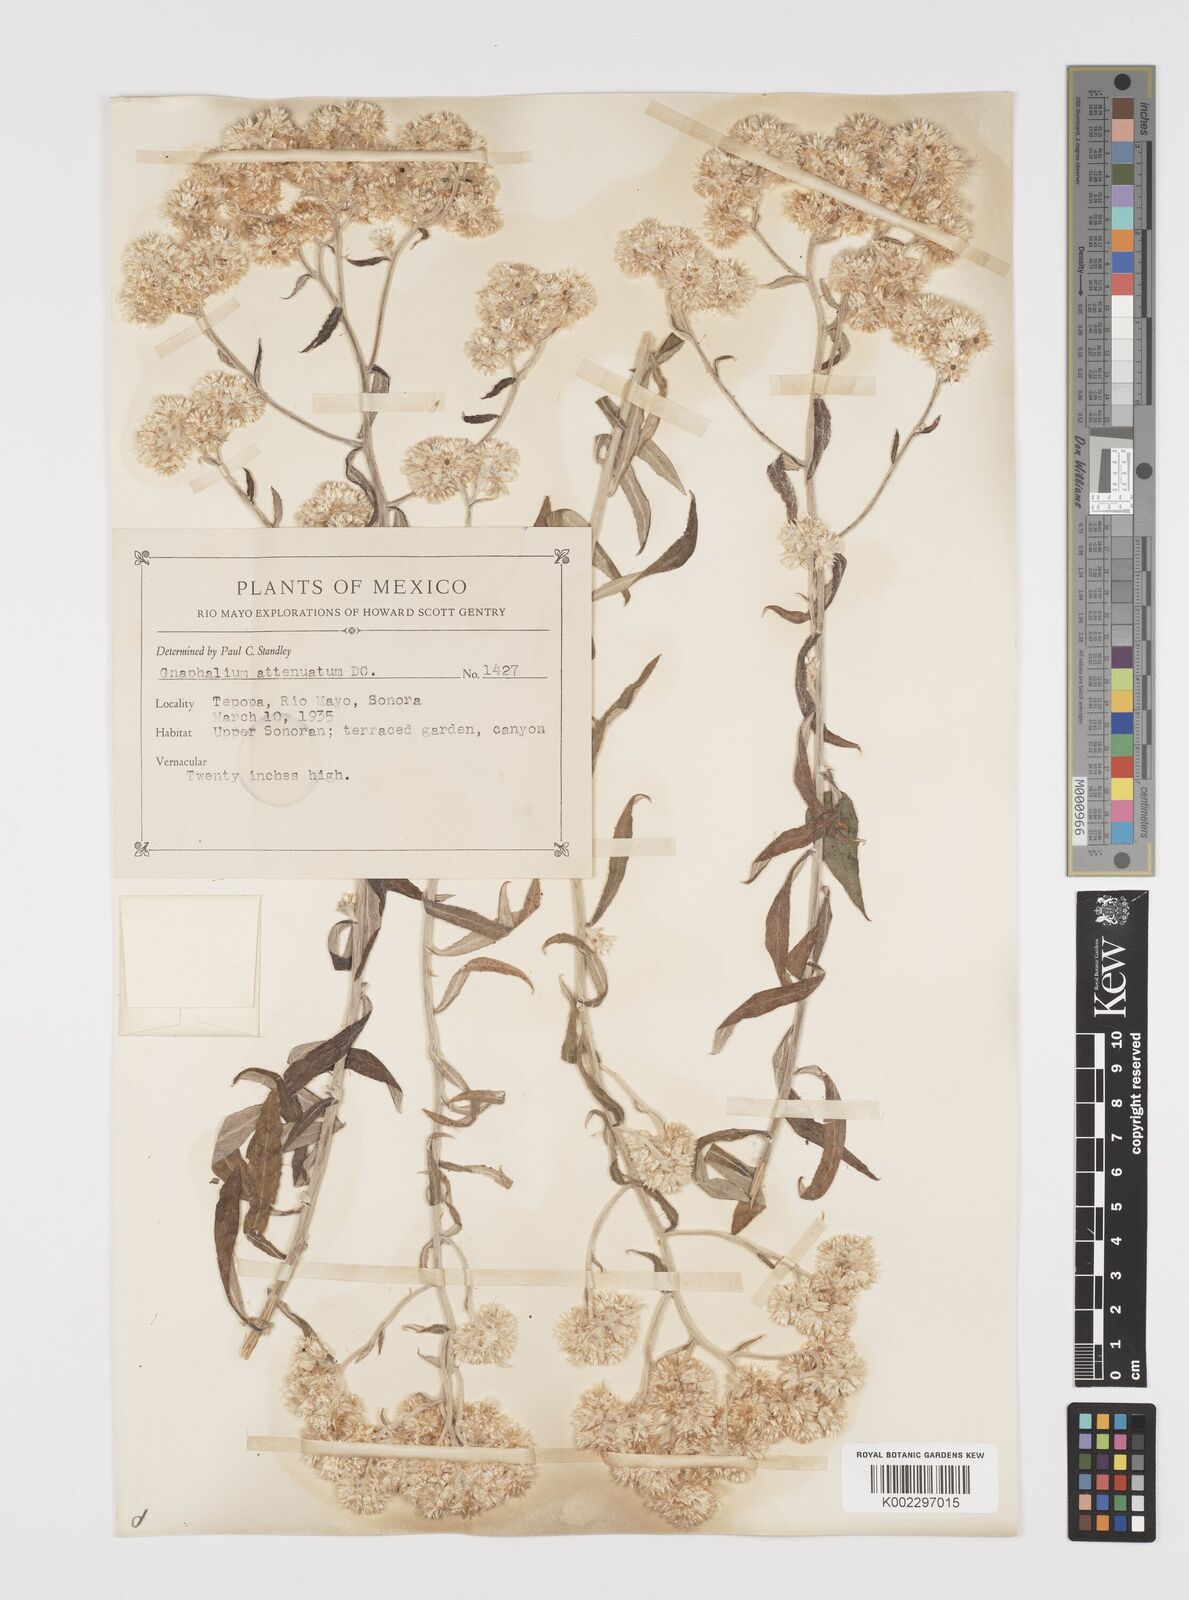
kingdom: Plantae
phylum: Tracheophyta
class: Magnoliopsida
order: Asterales
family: Asteraceae
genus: Pseudognaphalium
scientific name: Pseudognaphalium attenuatum
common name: Tapered cudweed
